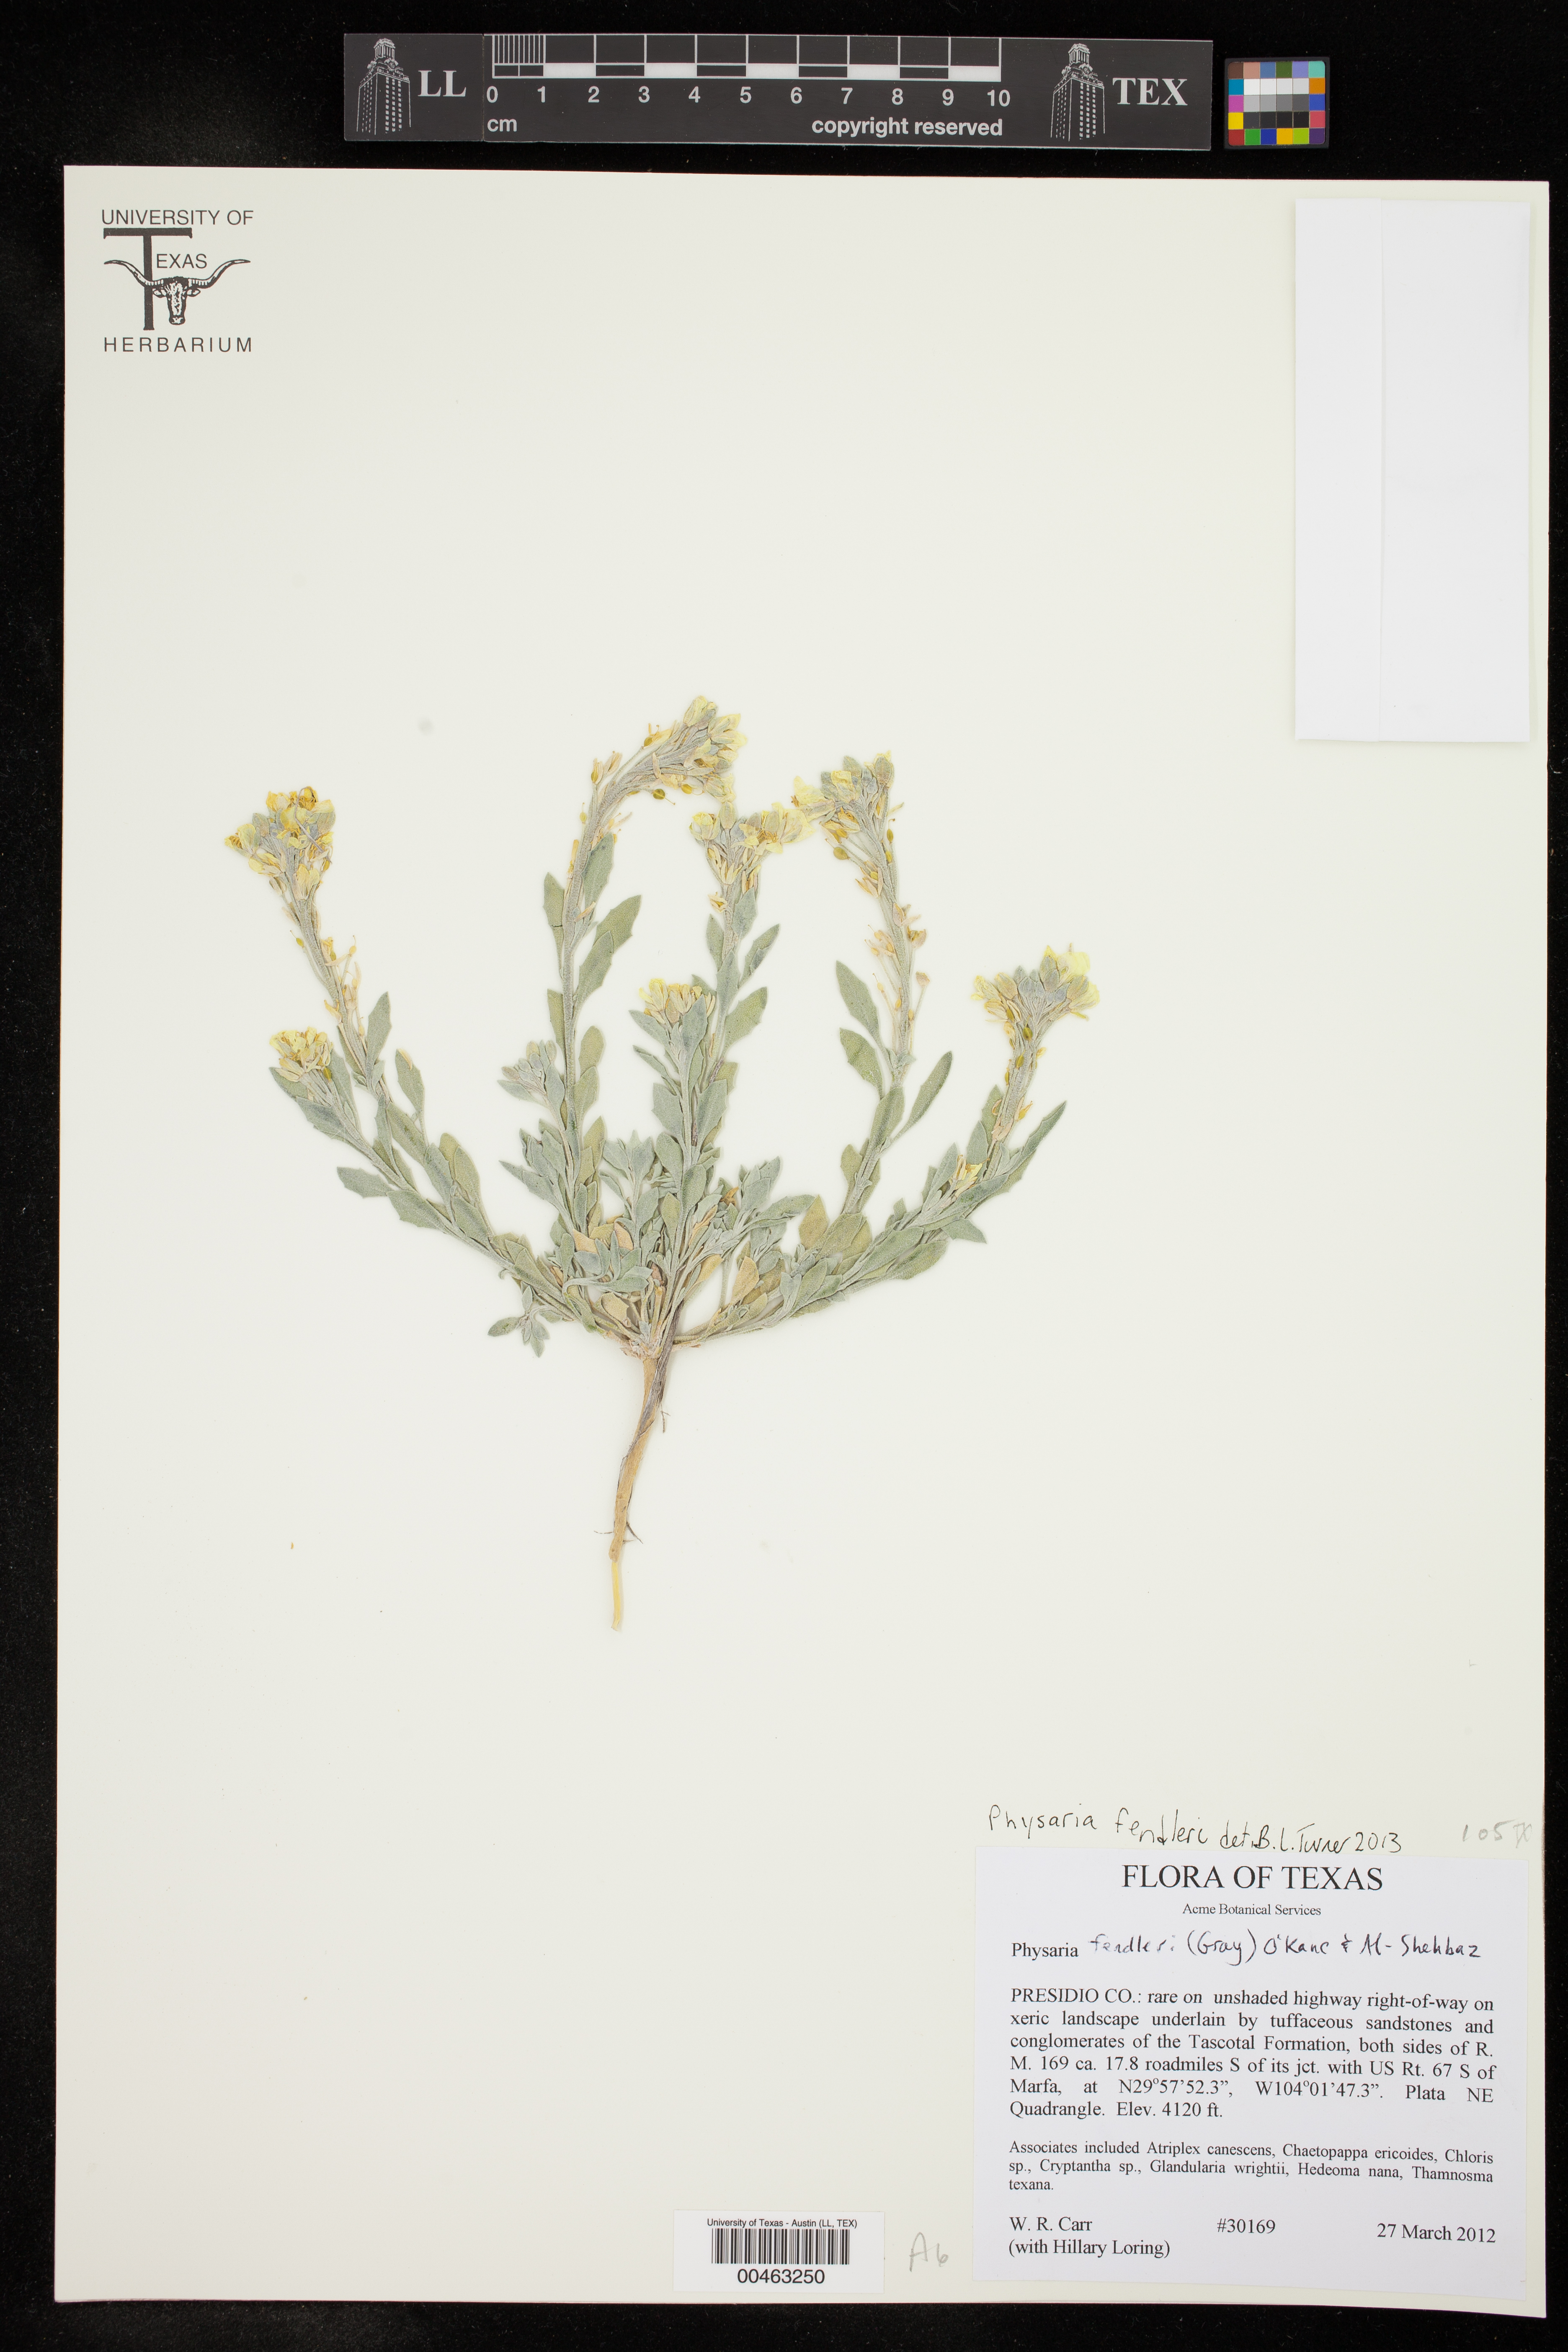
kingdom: Plantae
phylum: Tracheophyta
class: Magnoliopsida
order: Brassicales
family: Brassicaceae
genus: Physaria
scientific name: Physaria fendleri
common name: Fendler's bladderpod
